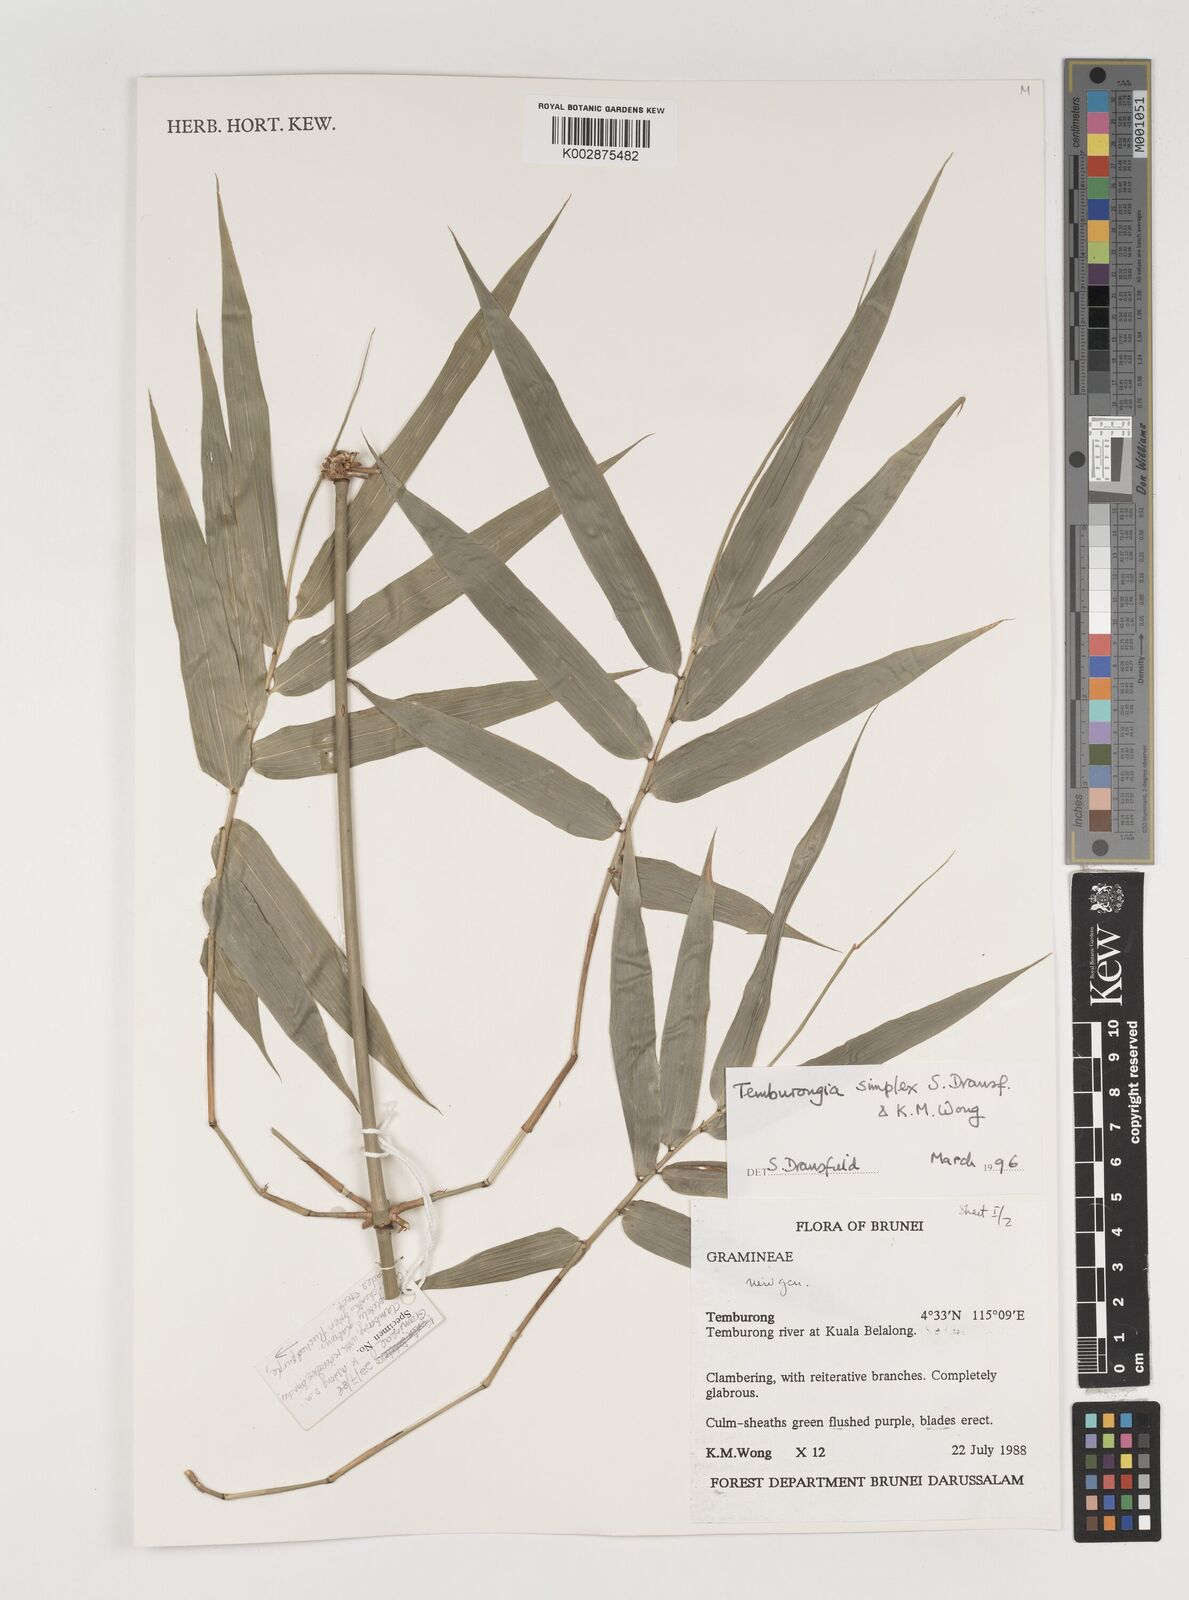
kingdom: Plantae
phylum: Tracheophyta
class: Liliopsida
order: Poales
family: Poaceae
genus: Temburongia
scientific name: Temburongia simplex
